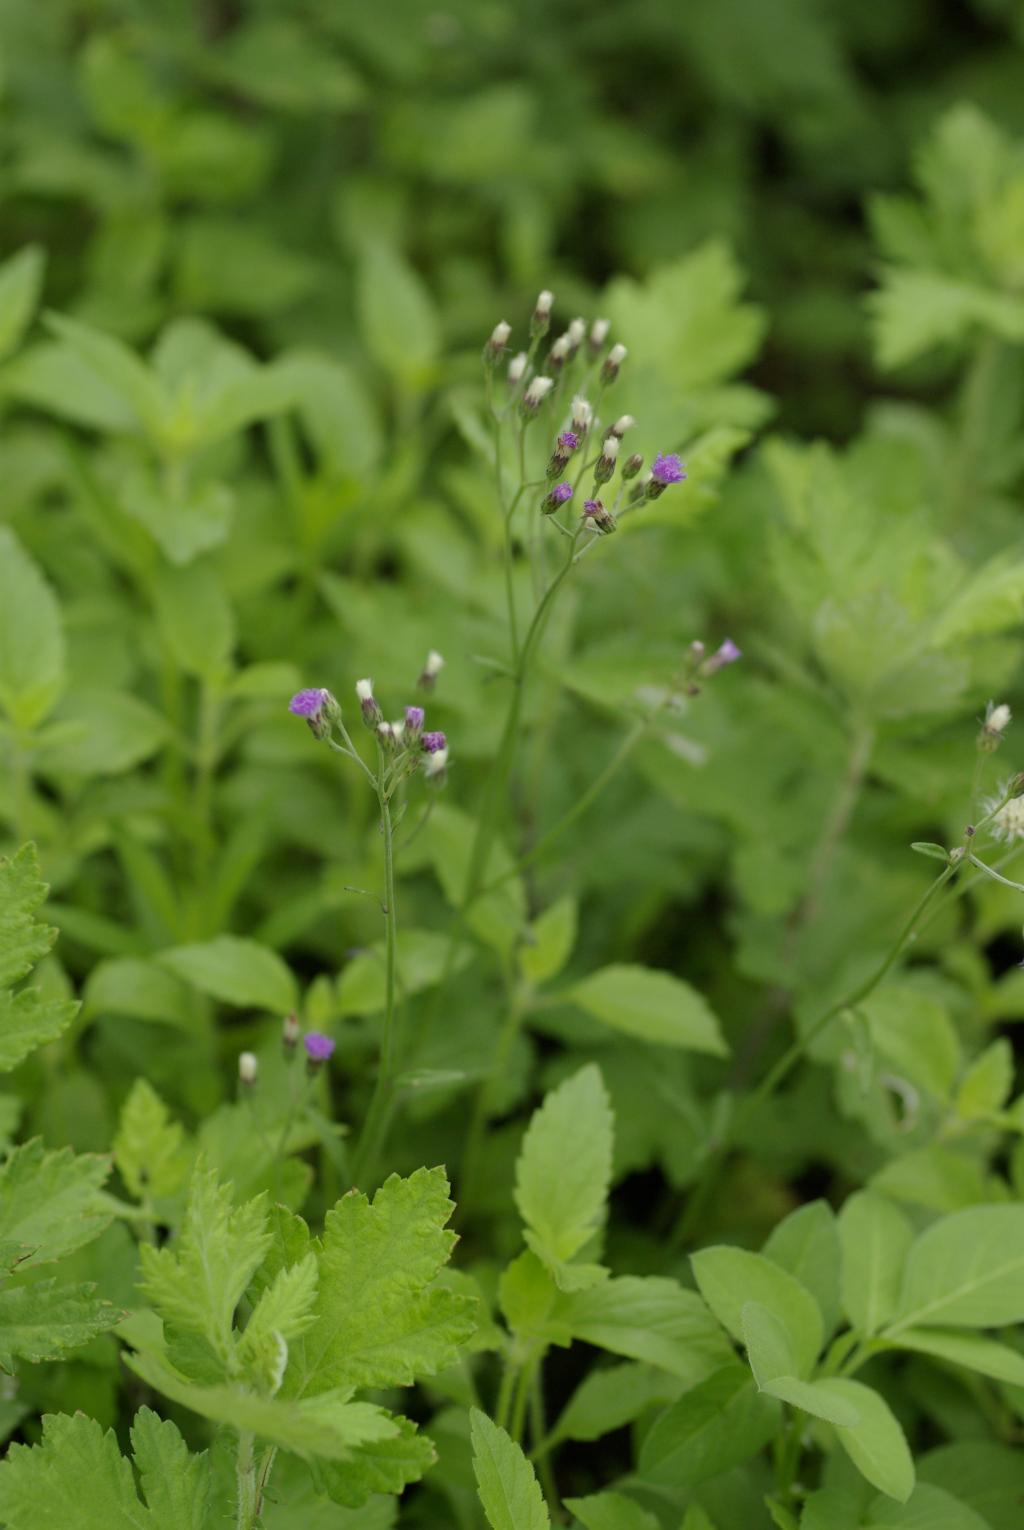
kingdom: Plantae
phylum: Tracheophyta
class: Magnoliopsida
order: Asterales
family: Asteraceae
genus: Cyanthillium
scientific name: Cyanthillium cinereum
